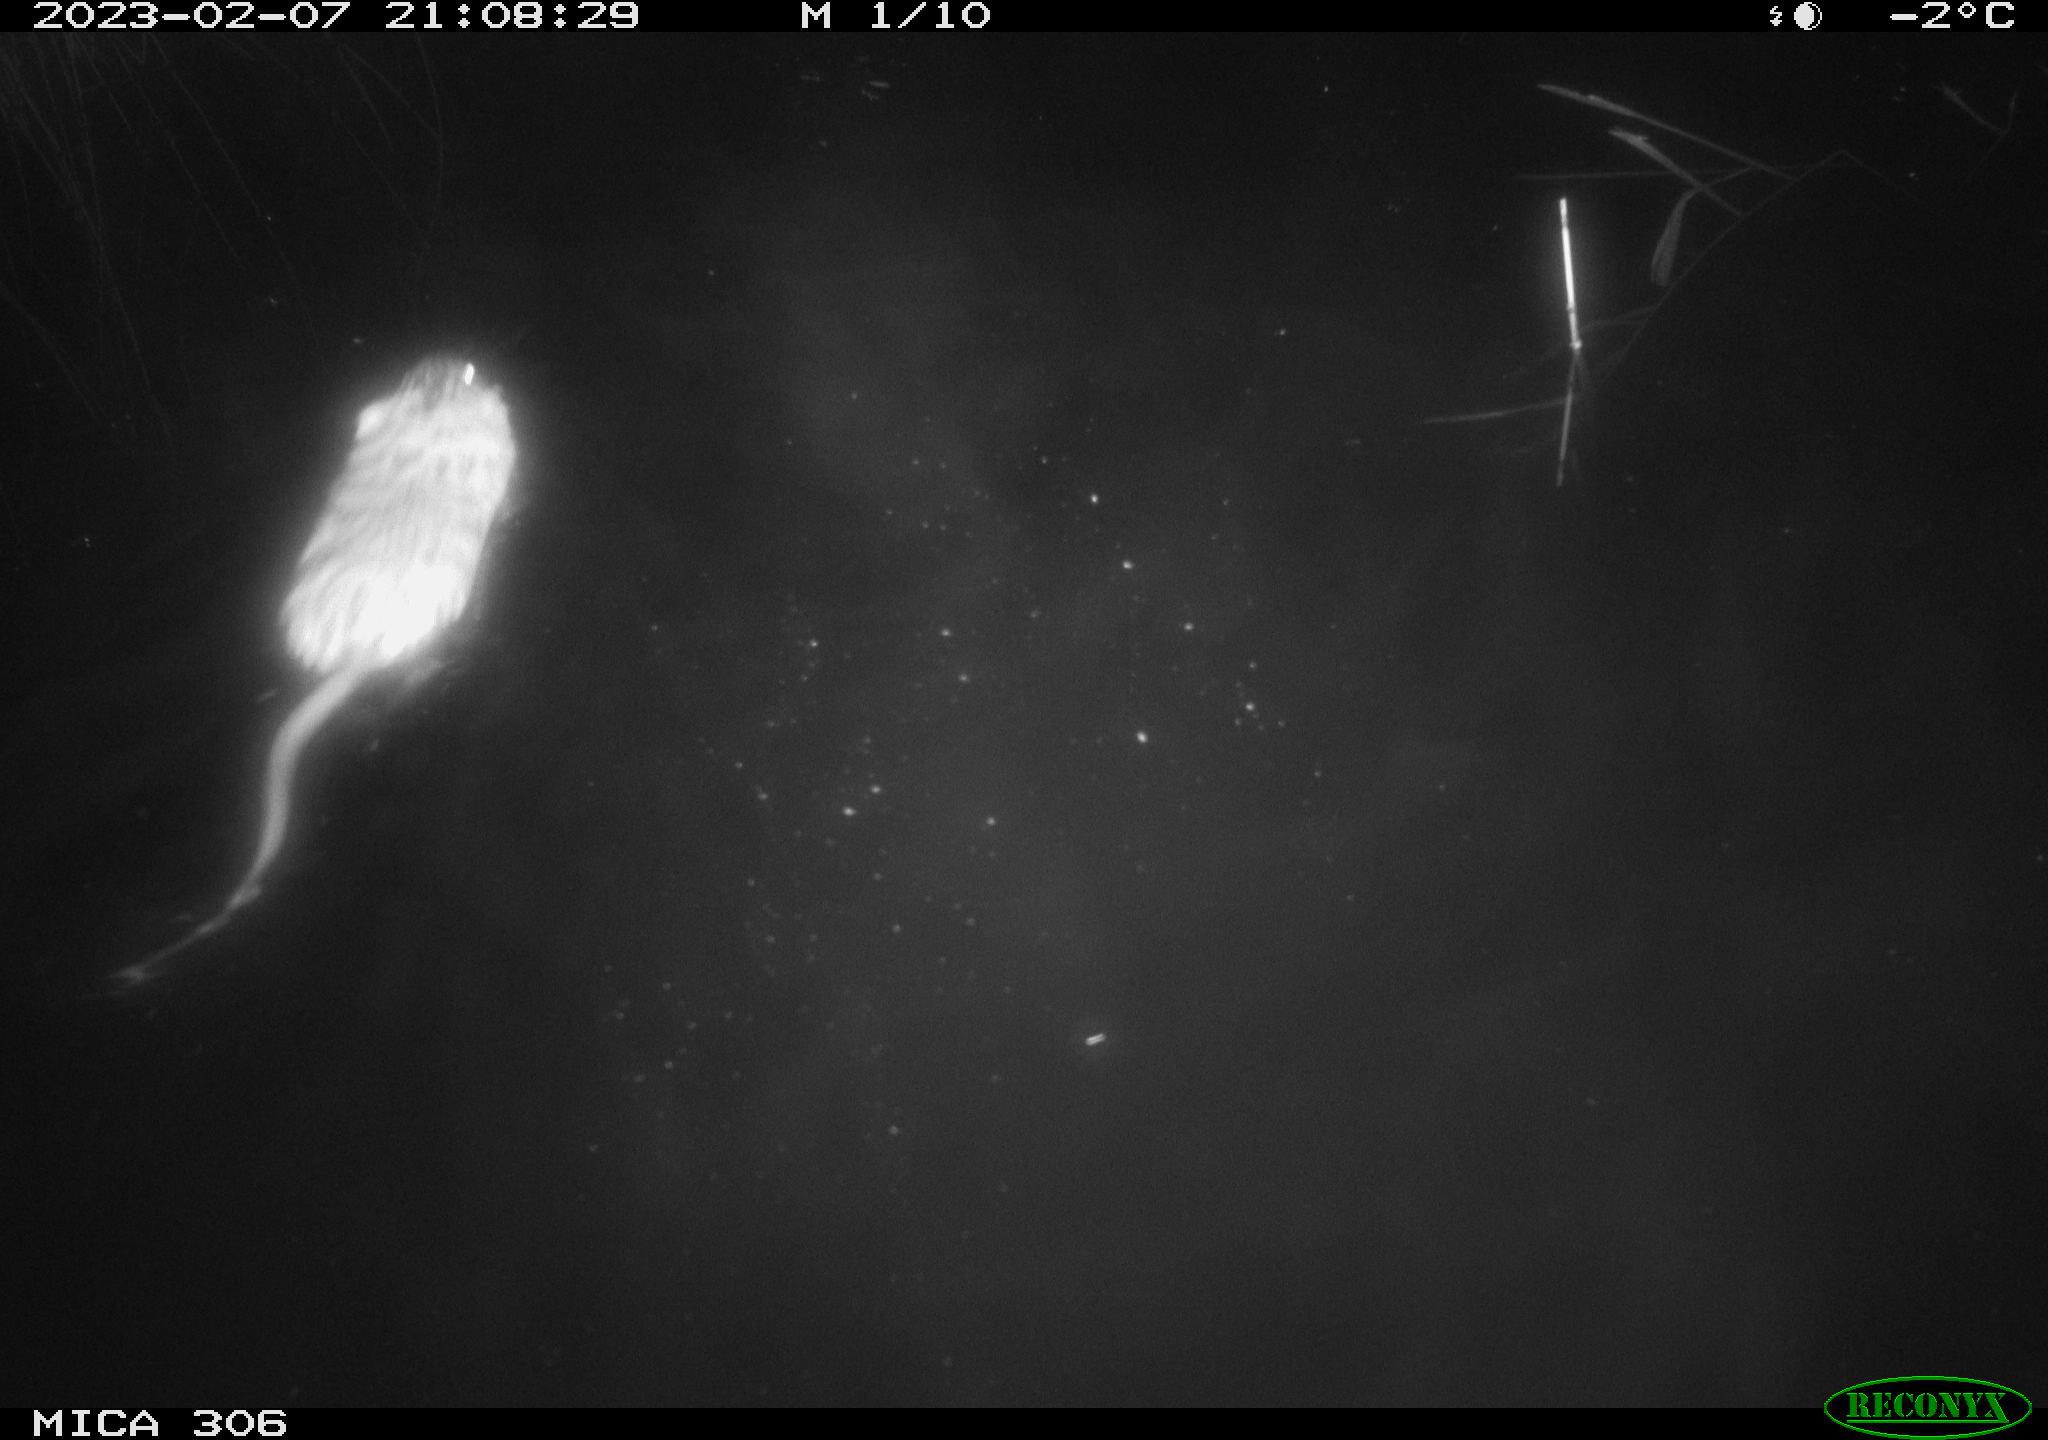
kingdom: Animalia
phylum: Chordata
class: Mammalia
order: Rodentia
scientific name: Rodentia
